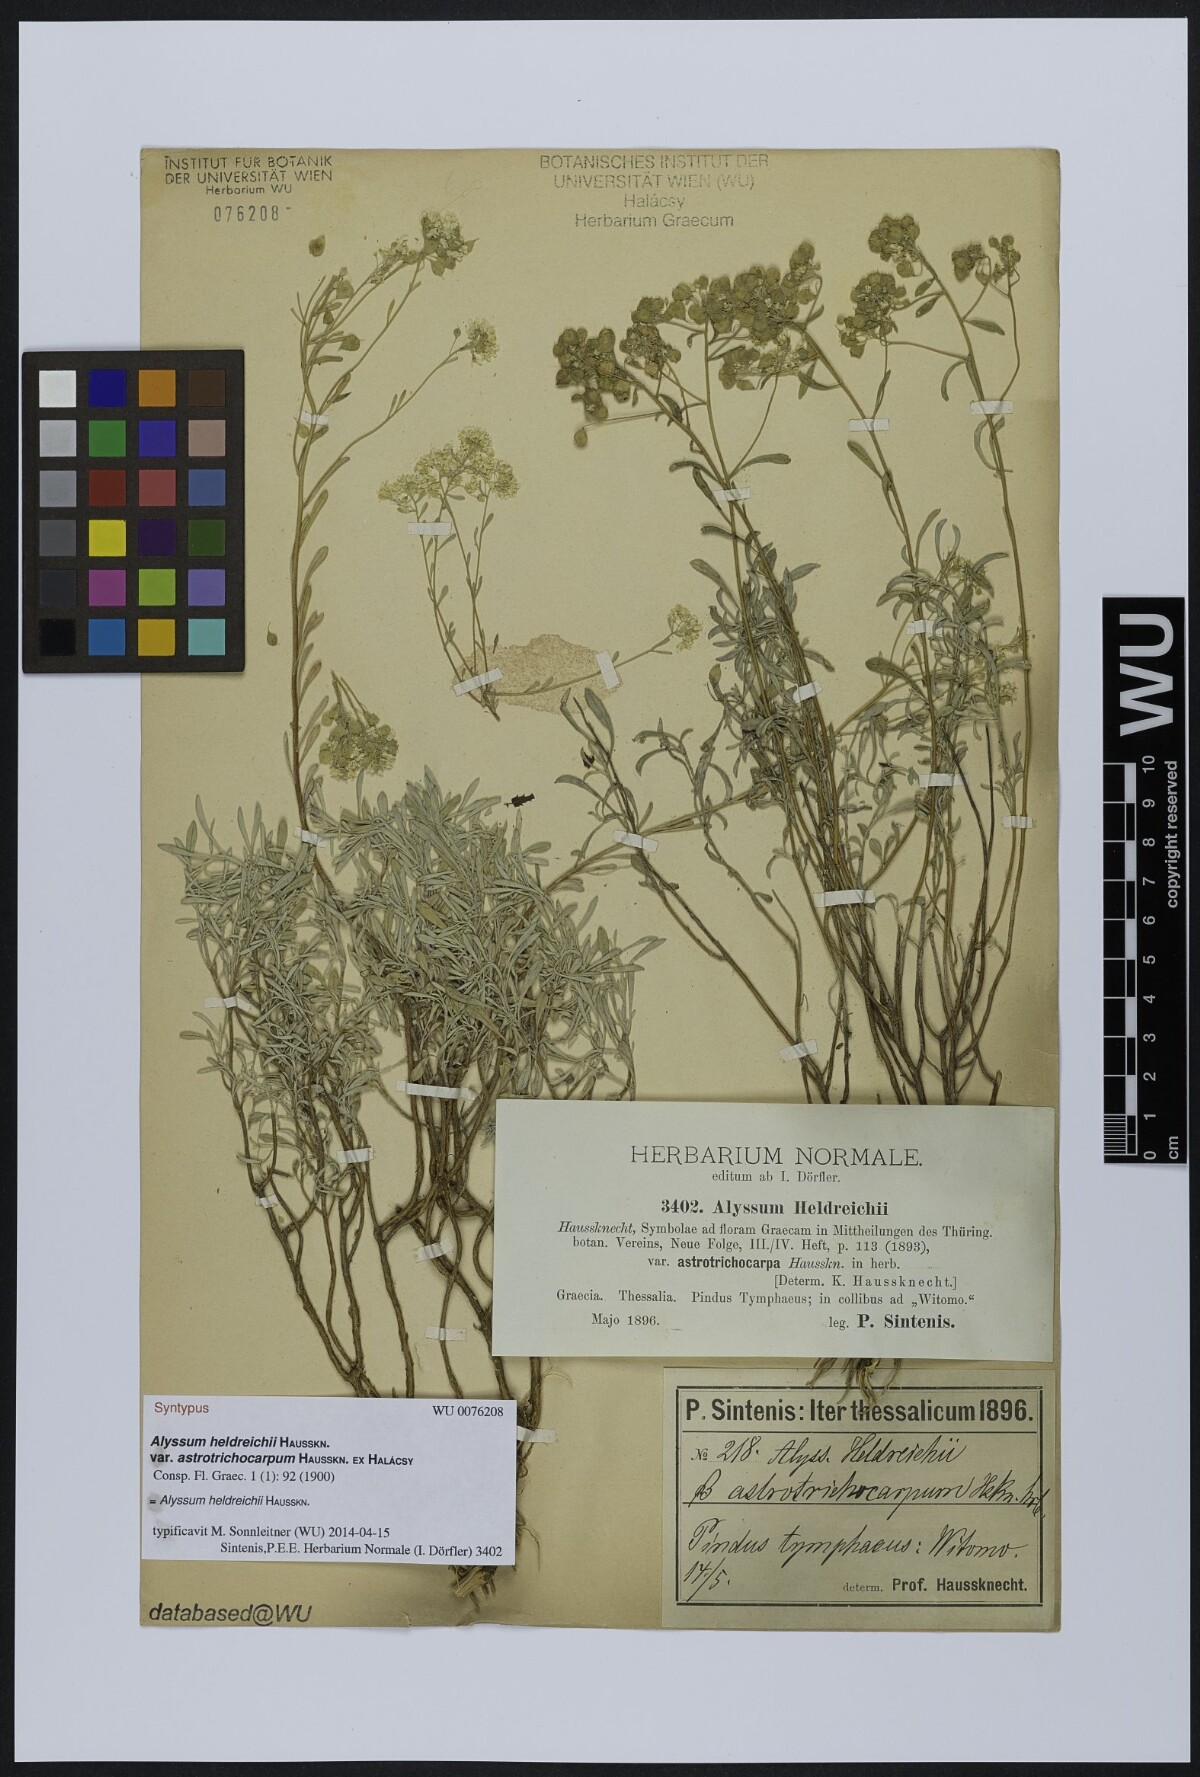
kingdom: Plantae
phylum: Tracheophyta
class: Magnoliopsida
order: Brassicales
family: Brassicaceae
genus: Odontarrhena
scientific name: Odontarrhena heldreichii
